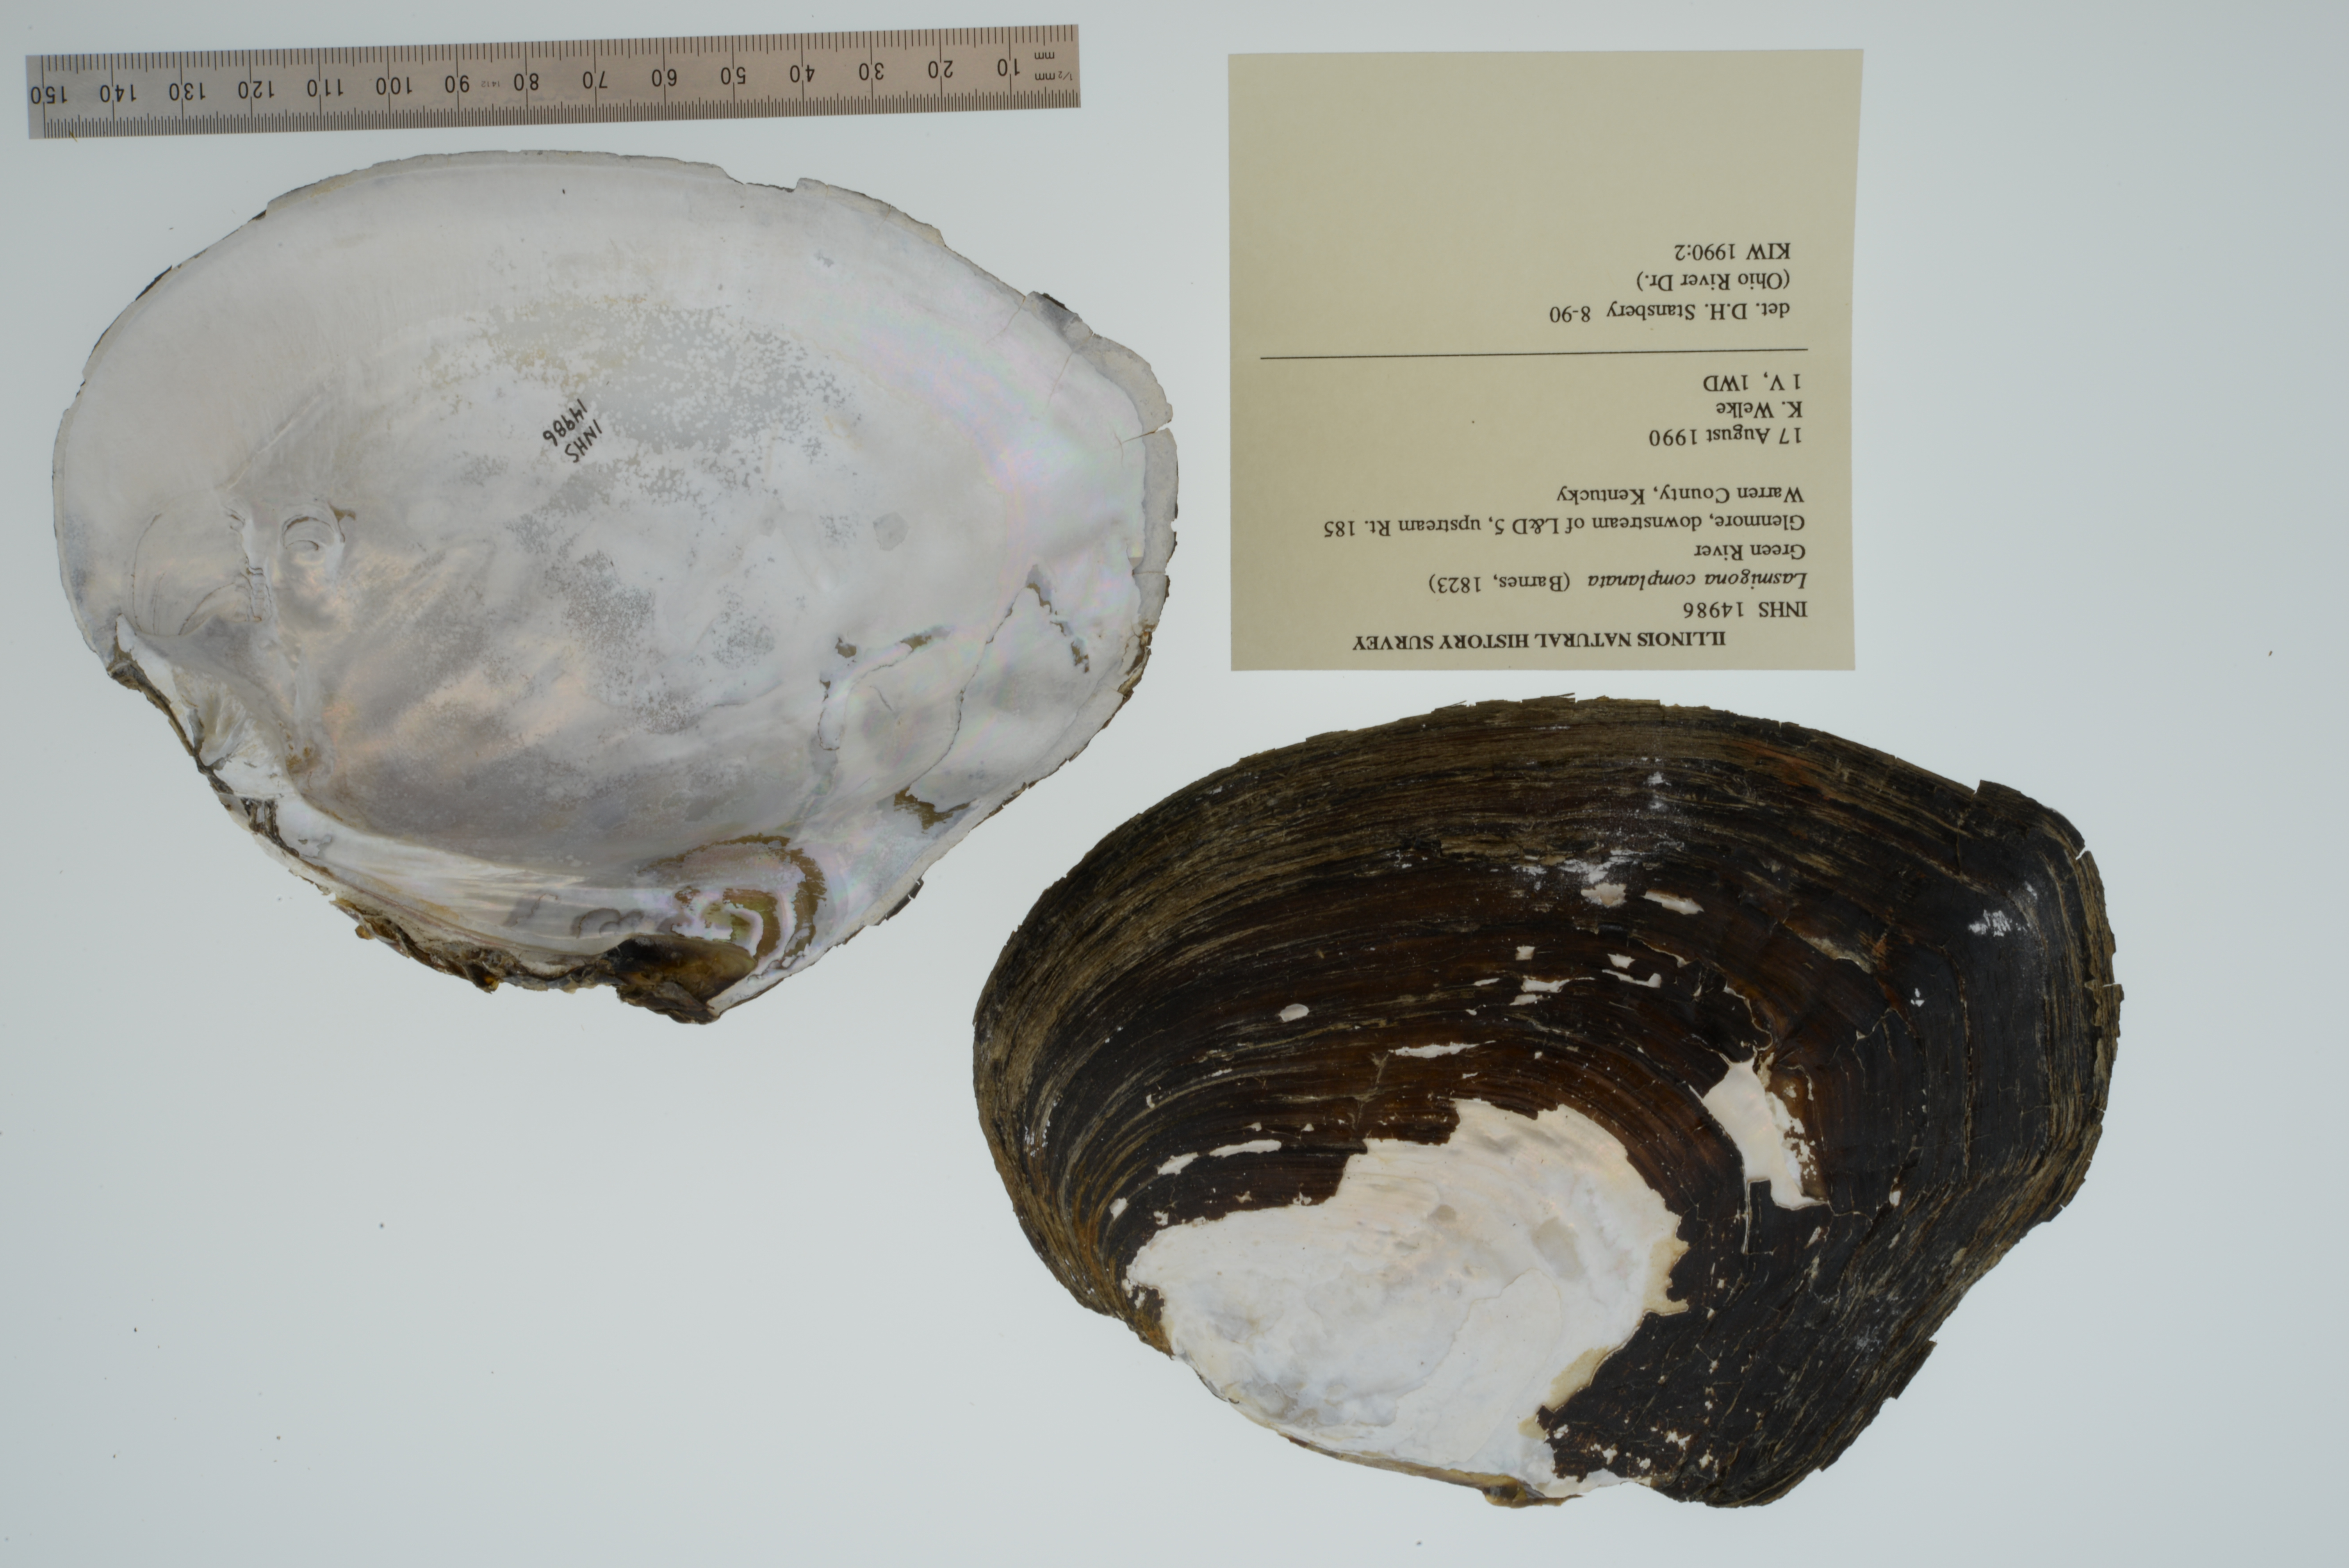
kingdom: Animalia
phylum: Mollusca
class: Bivalvia
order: Unionida
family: Unionidae
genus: Lasmigona
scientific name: Lasmigona complanata
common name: White heelsplitter
